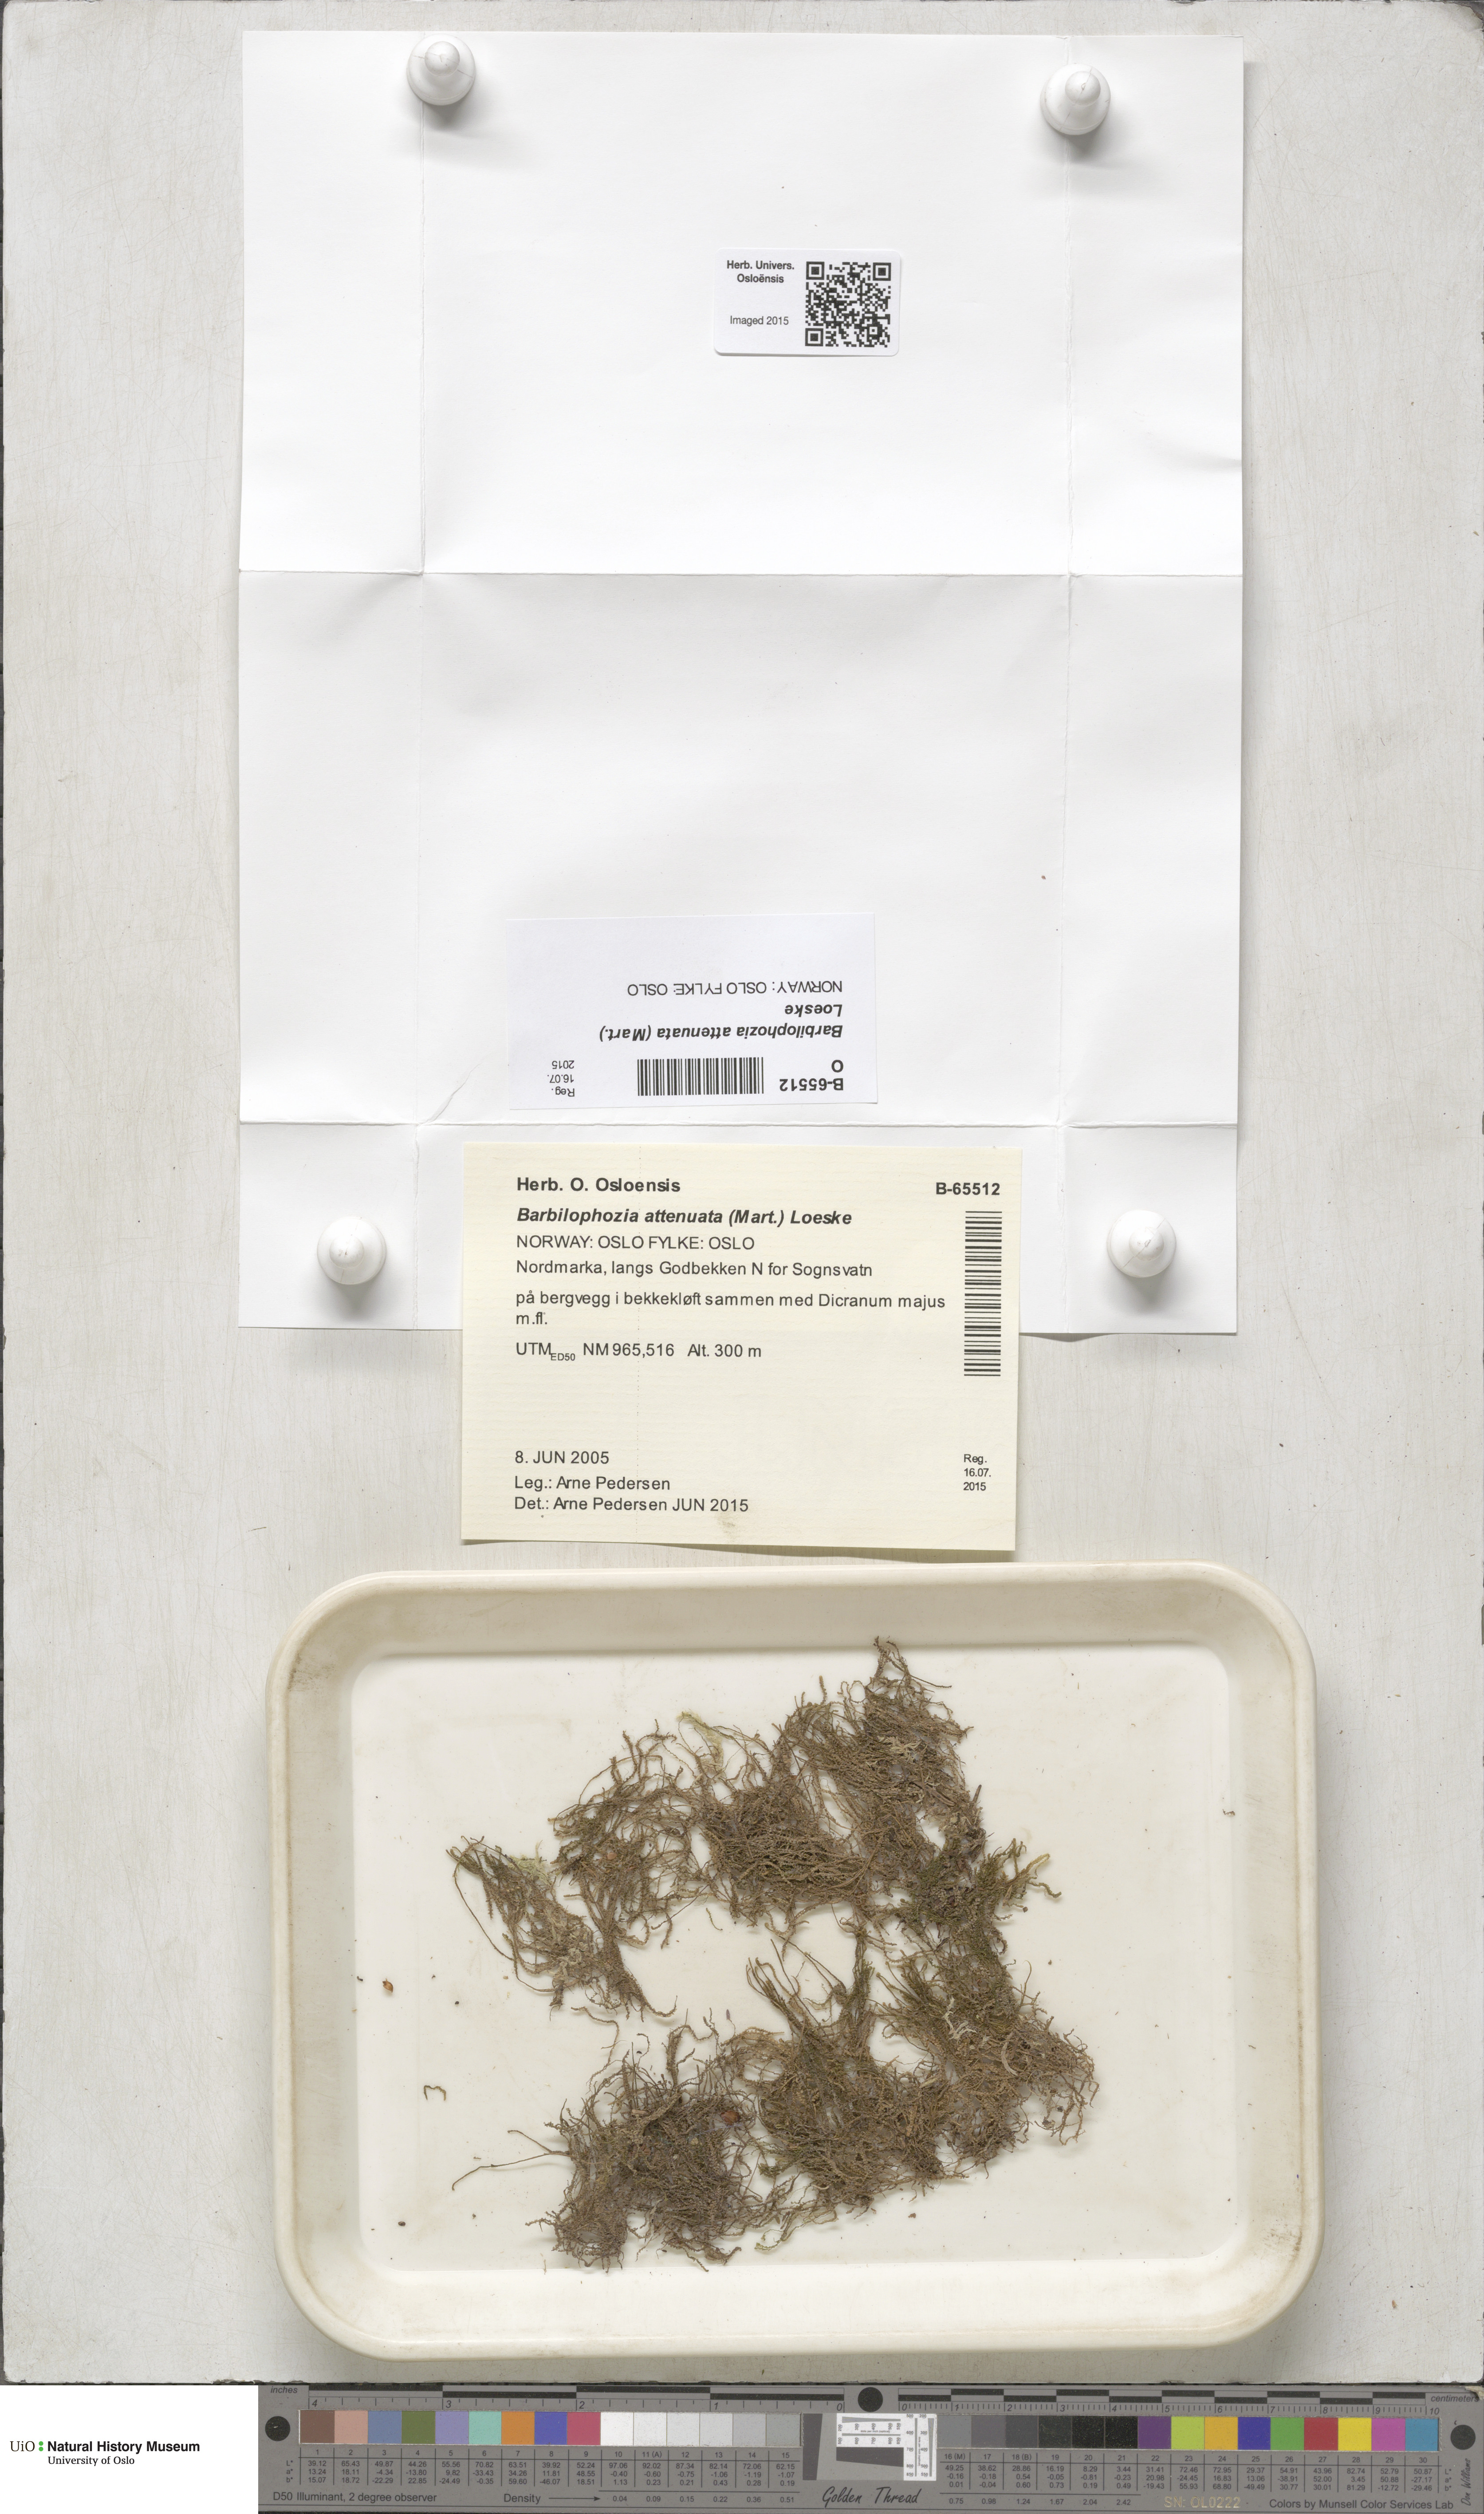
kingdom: Plantae
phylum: Marchantiophyta
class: Jungermanniopsida
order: Jungermanniales
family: Anastrophyllaceae
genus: Neoorthocaulis
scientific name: Neoorthocaulis attenuatus
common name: Trunk pawwort
